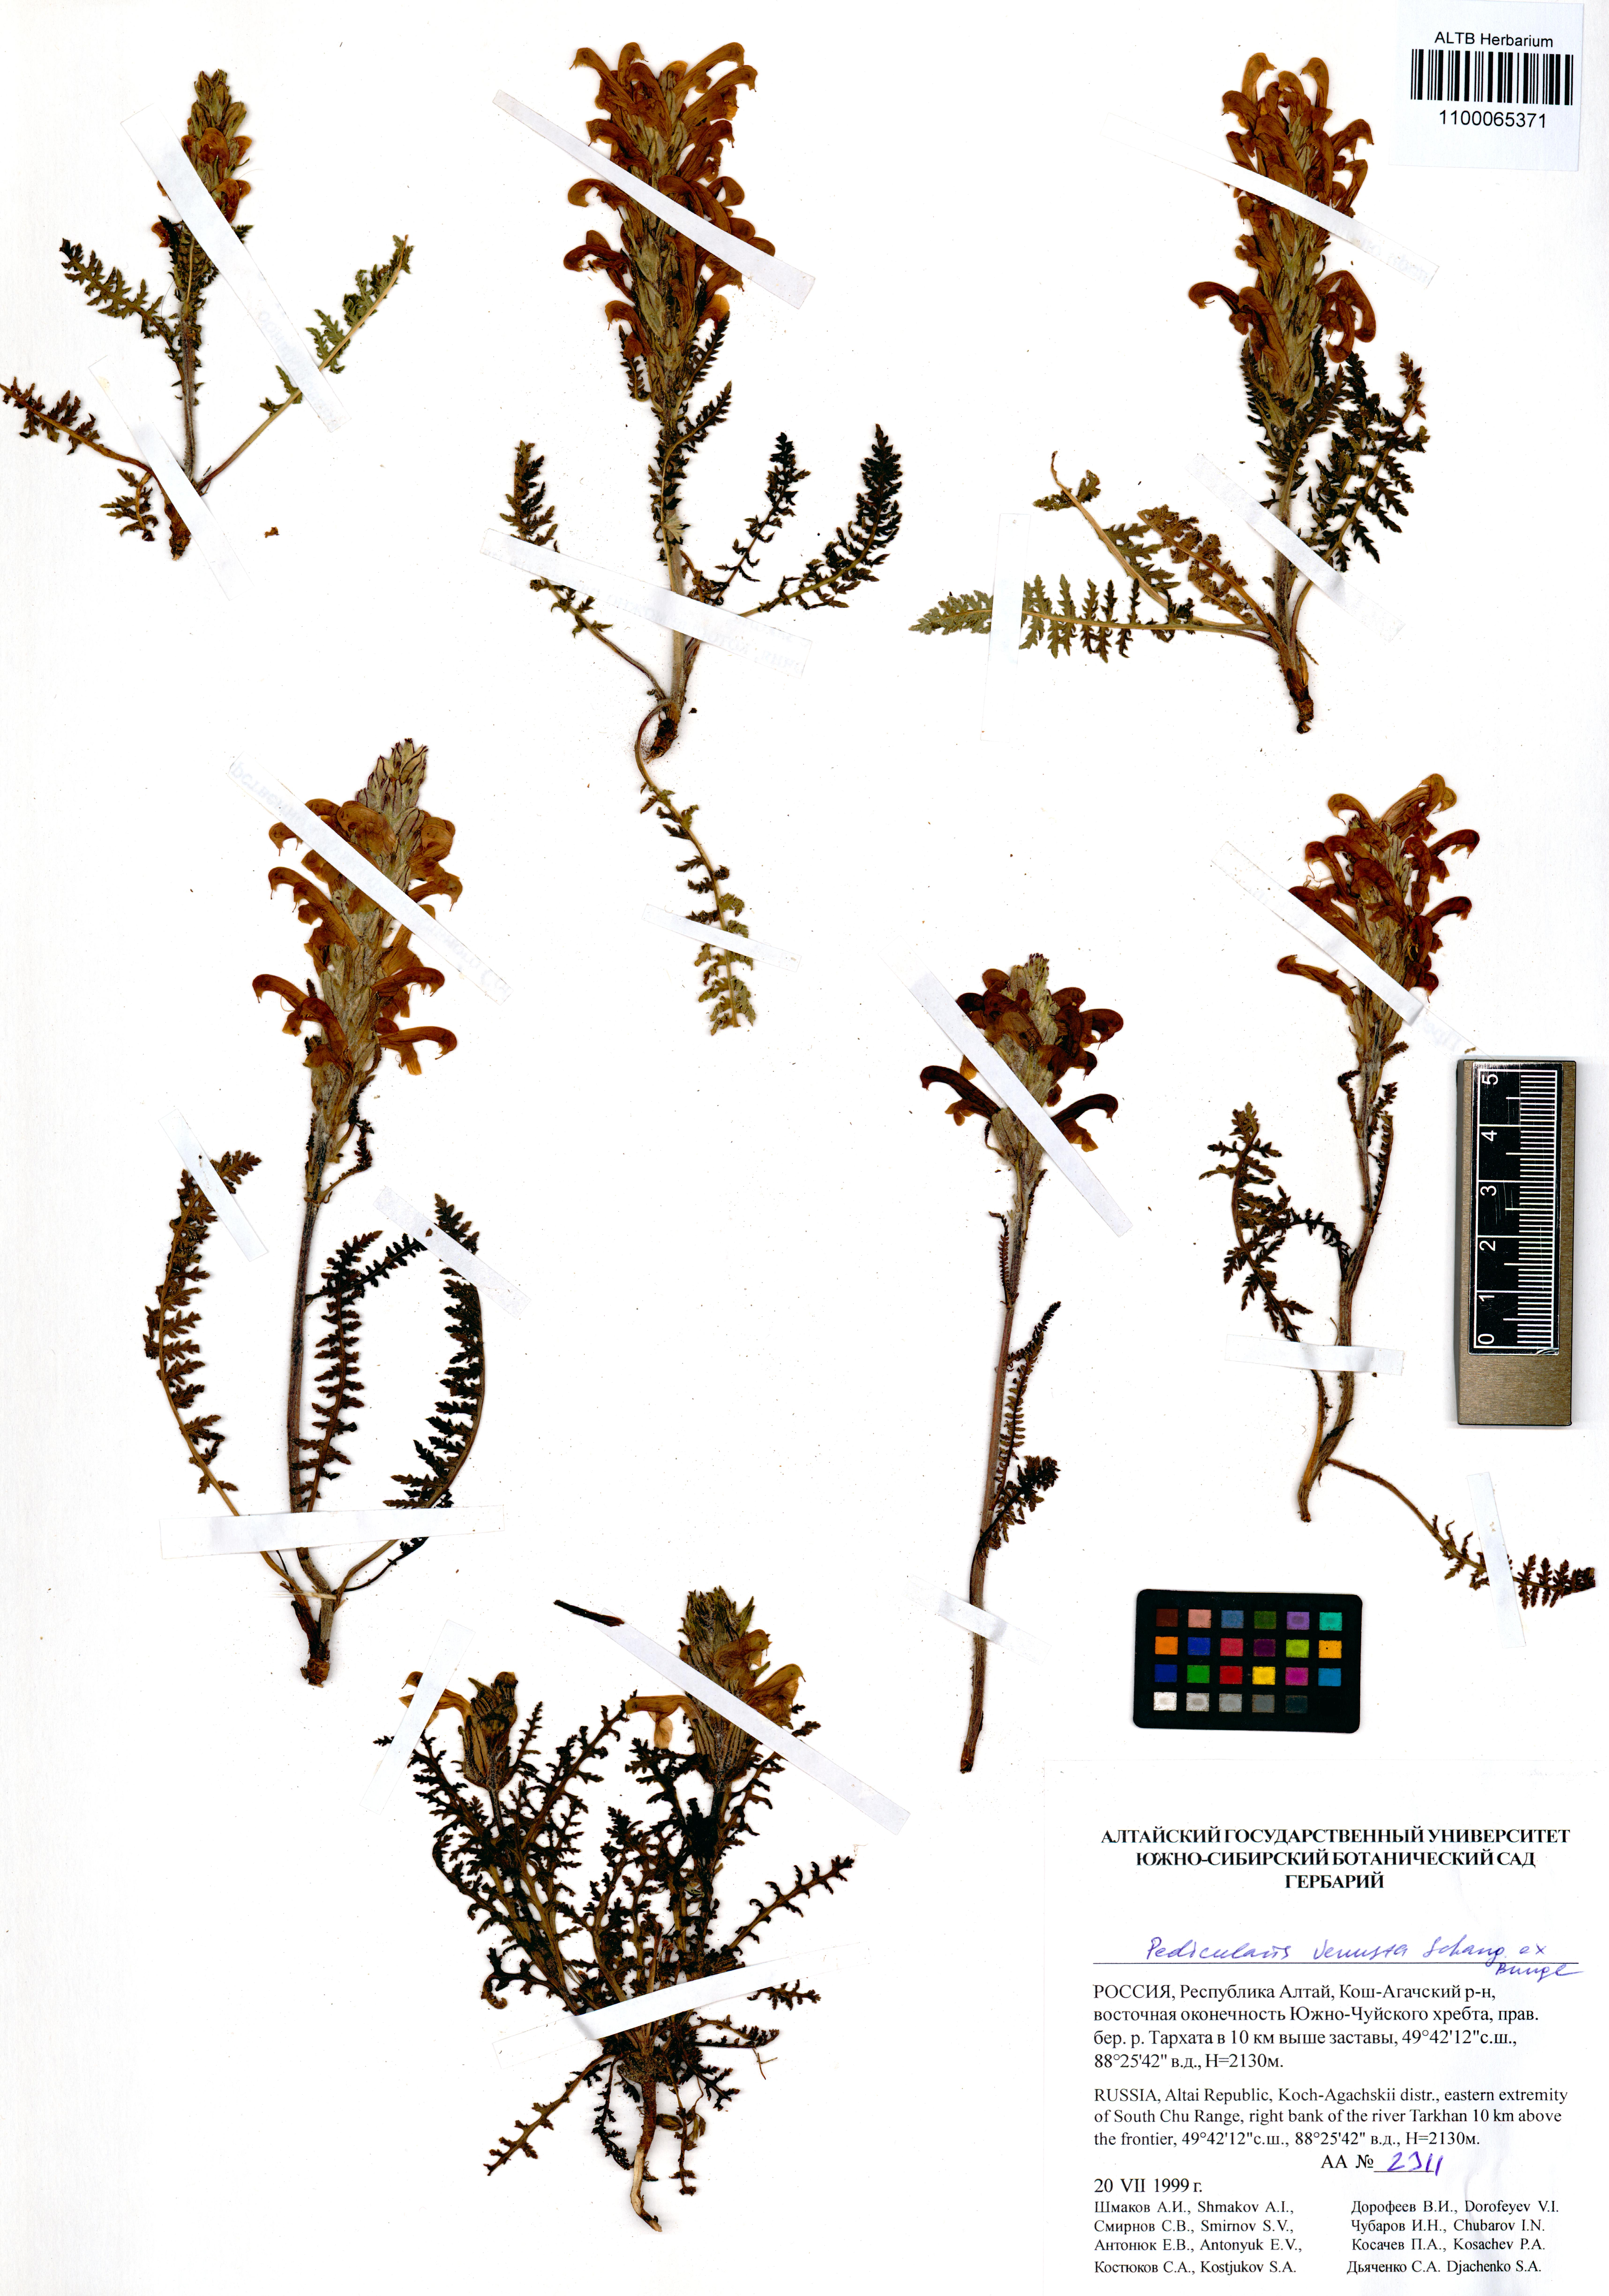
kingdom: Plantae
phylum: Tracheophyta
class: Magnoliopsida
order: Lamiales
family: Orobanchaceae
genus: Pedicularis
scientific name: Pedicularis venusta
